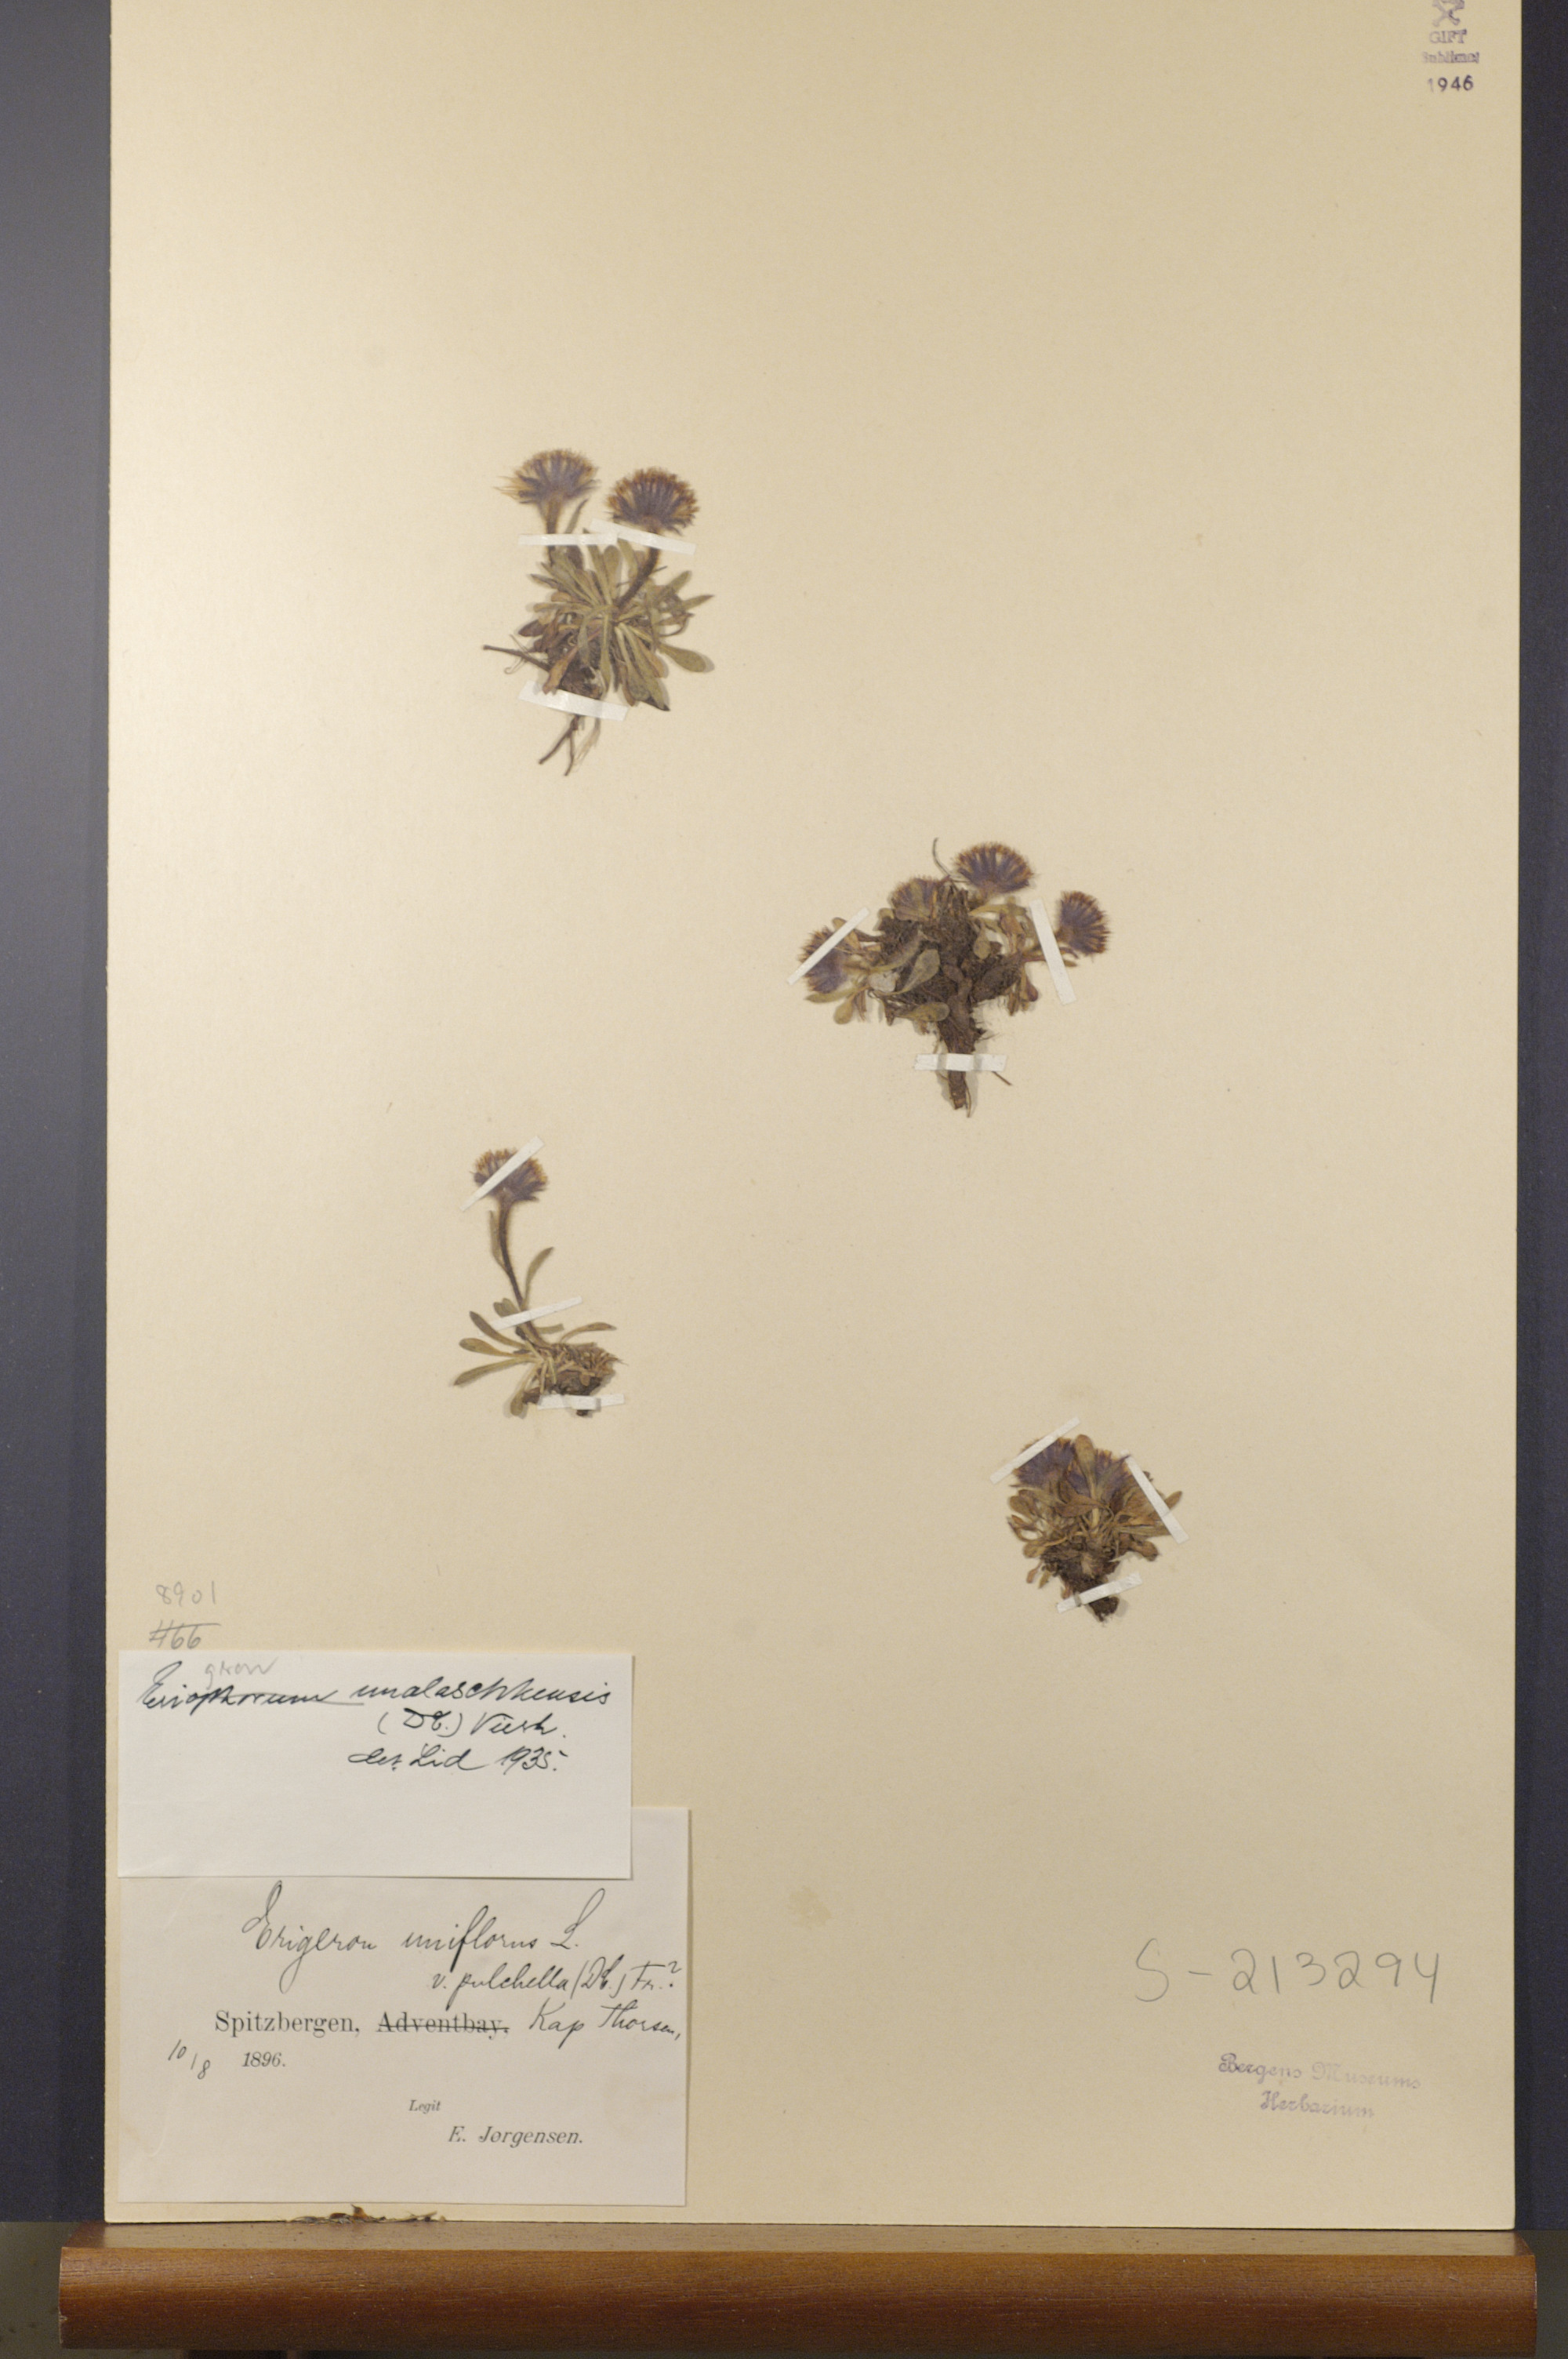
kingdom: Plantae
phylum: Tracheophyta
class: Magnoliopsida
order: Asterales
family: Asteraceae
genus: Erigeron
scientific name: Erigeron humilis
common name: Arctic-alpine fleabane
